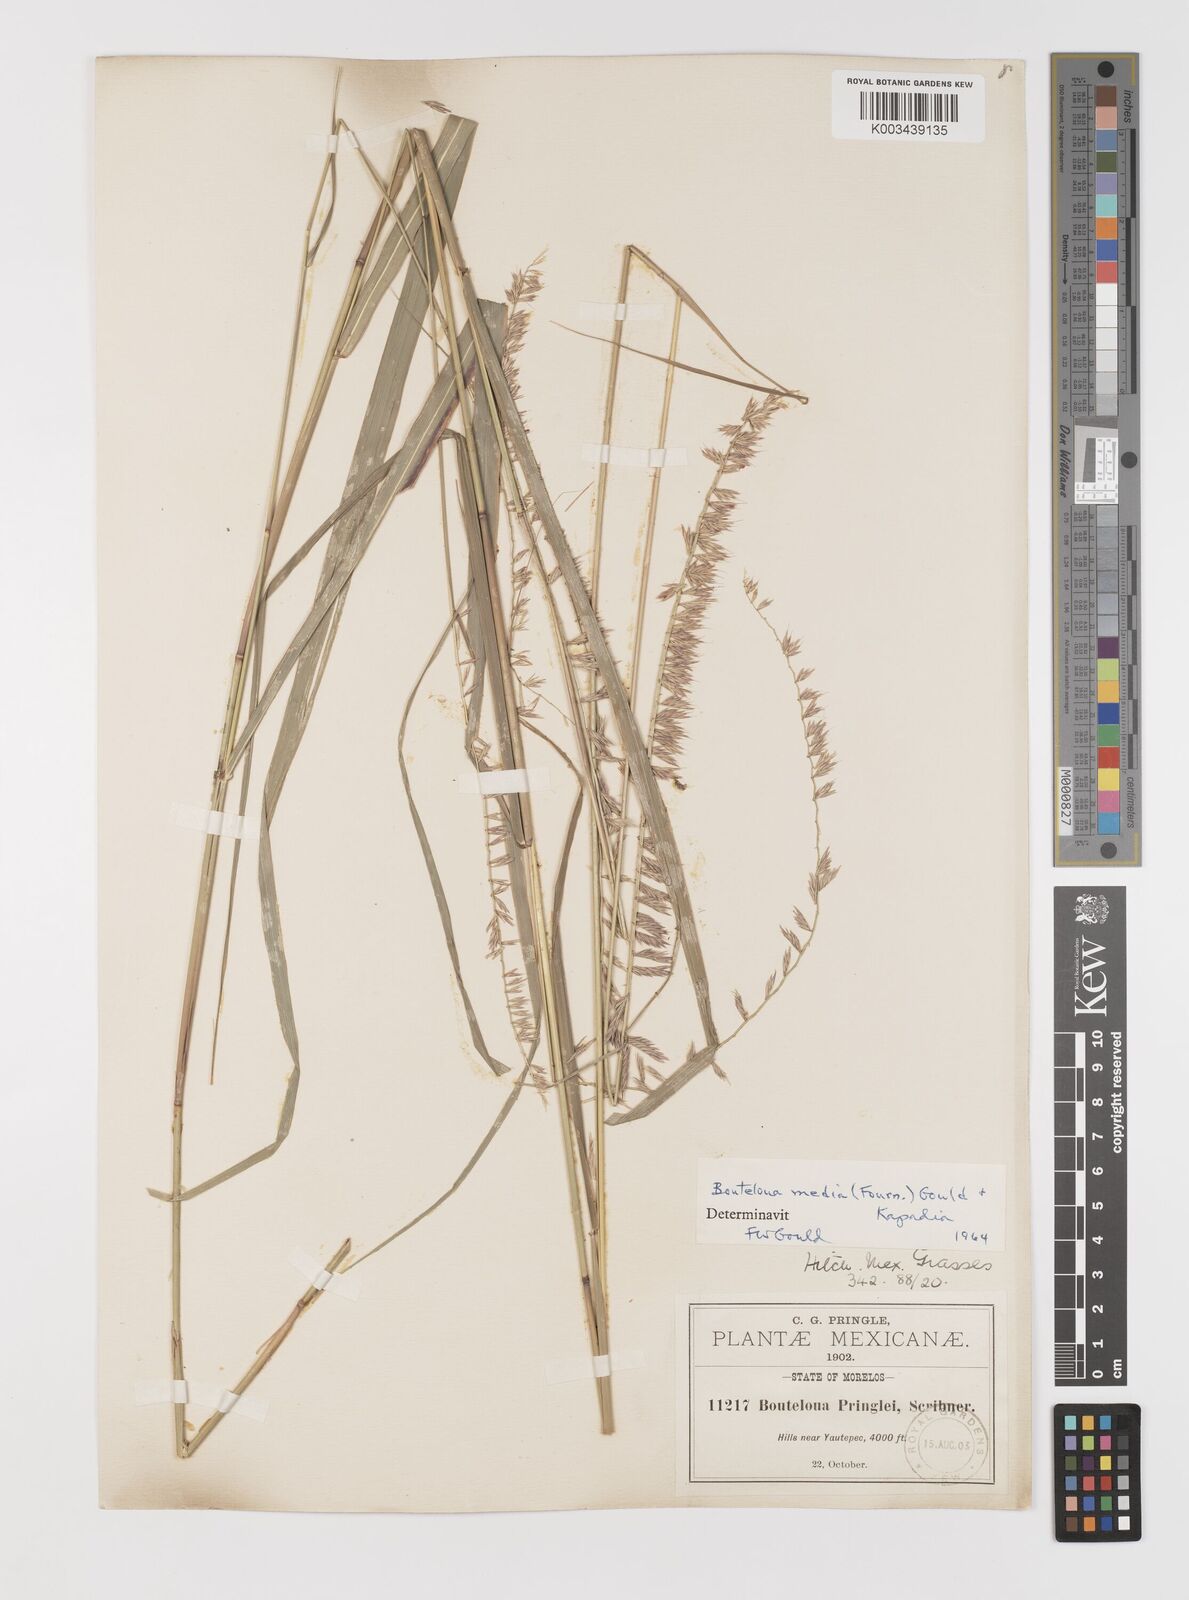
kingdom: Plantae
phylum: Tracheophyta
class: Liliopsida
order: Poales
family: Poaceae
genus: Bouteloua
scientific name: Bouteloua media
